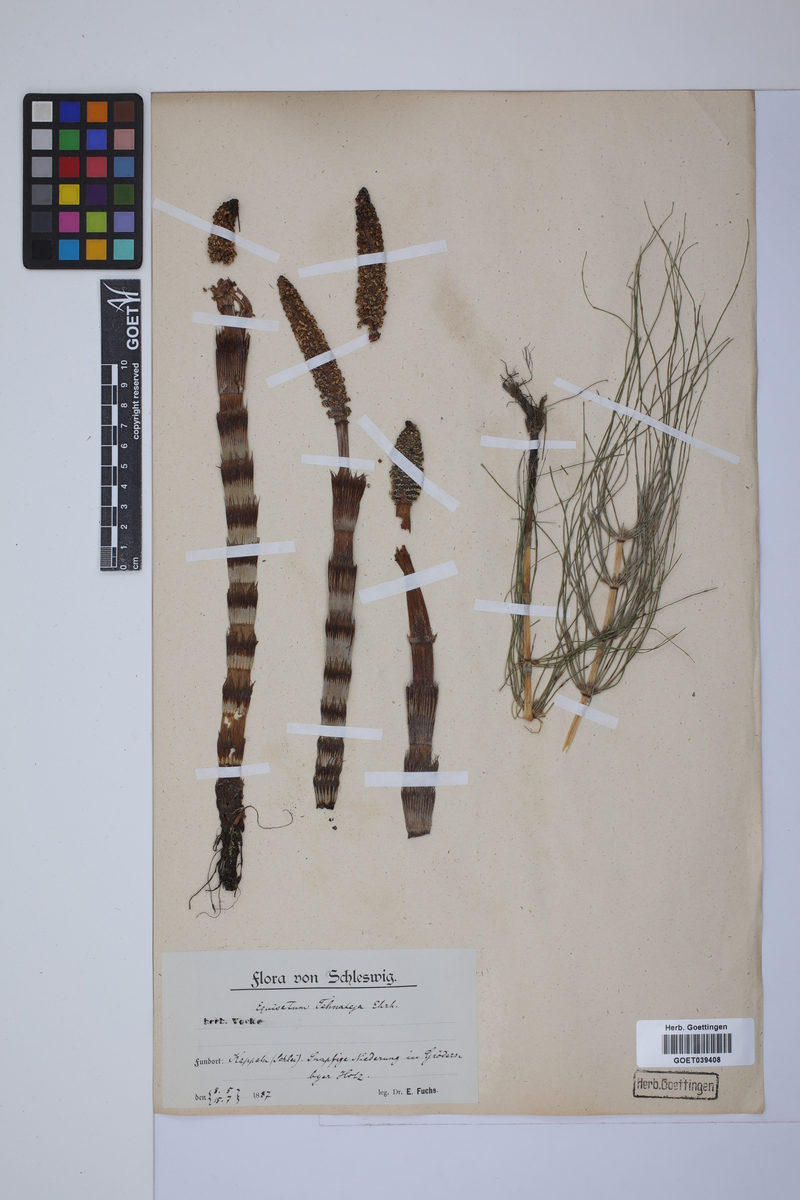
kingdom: Plantae
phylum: Tracheophyta
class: Polypodiopsida
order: Equisetales
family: Equisetaceae
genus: Equisetum
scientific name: Equisetum telmateia
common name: Great horsetail
